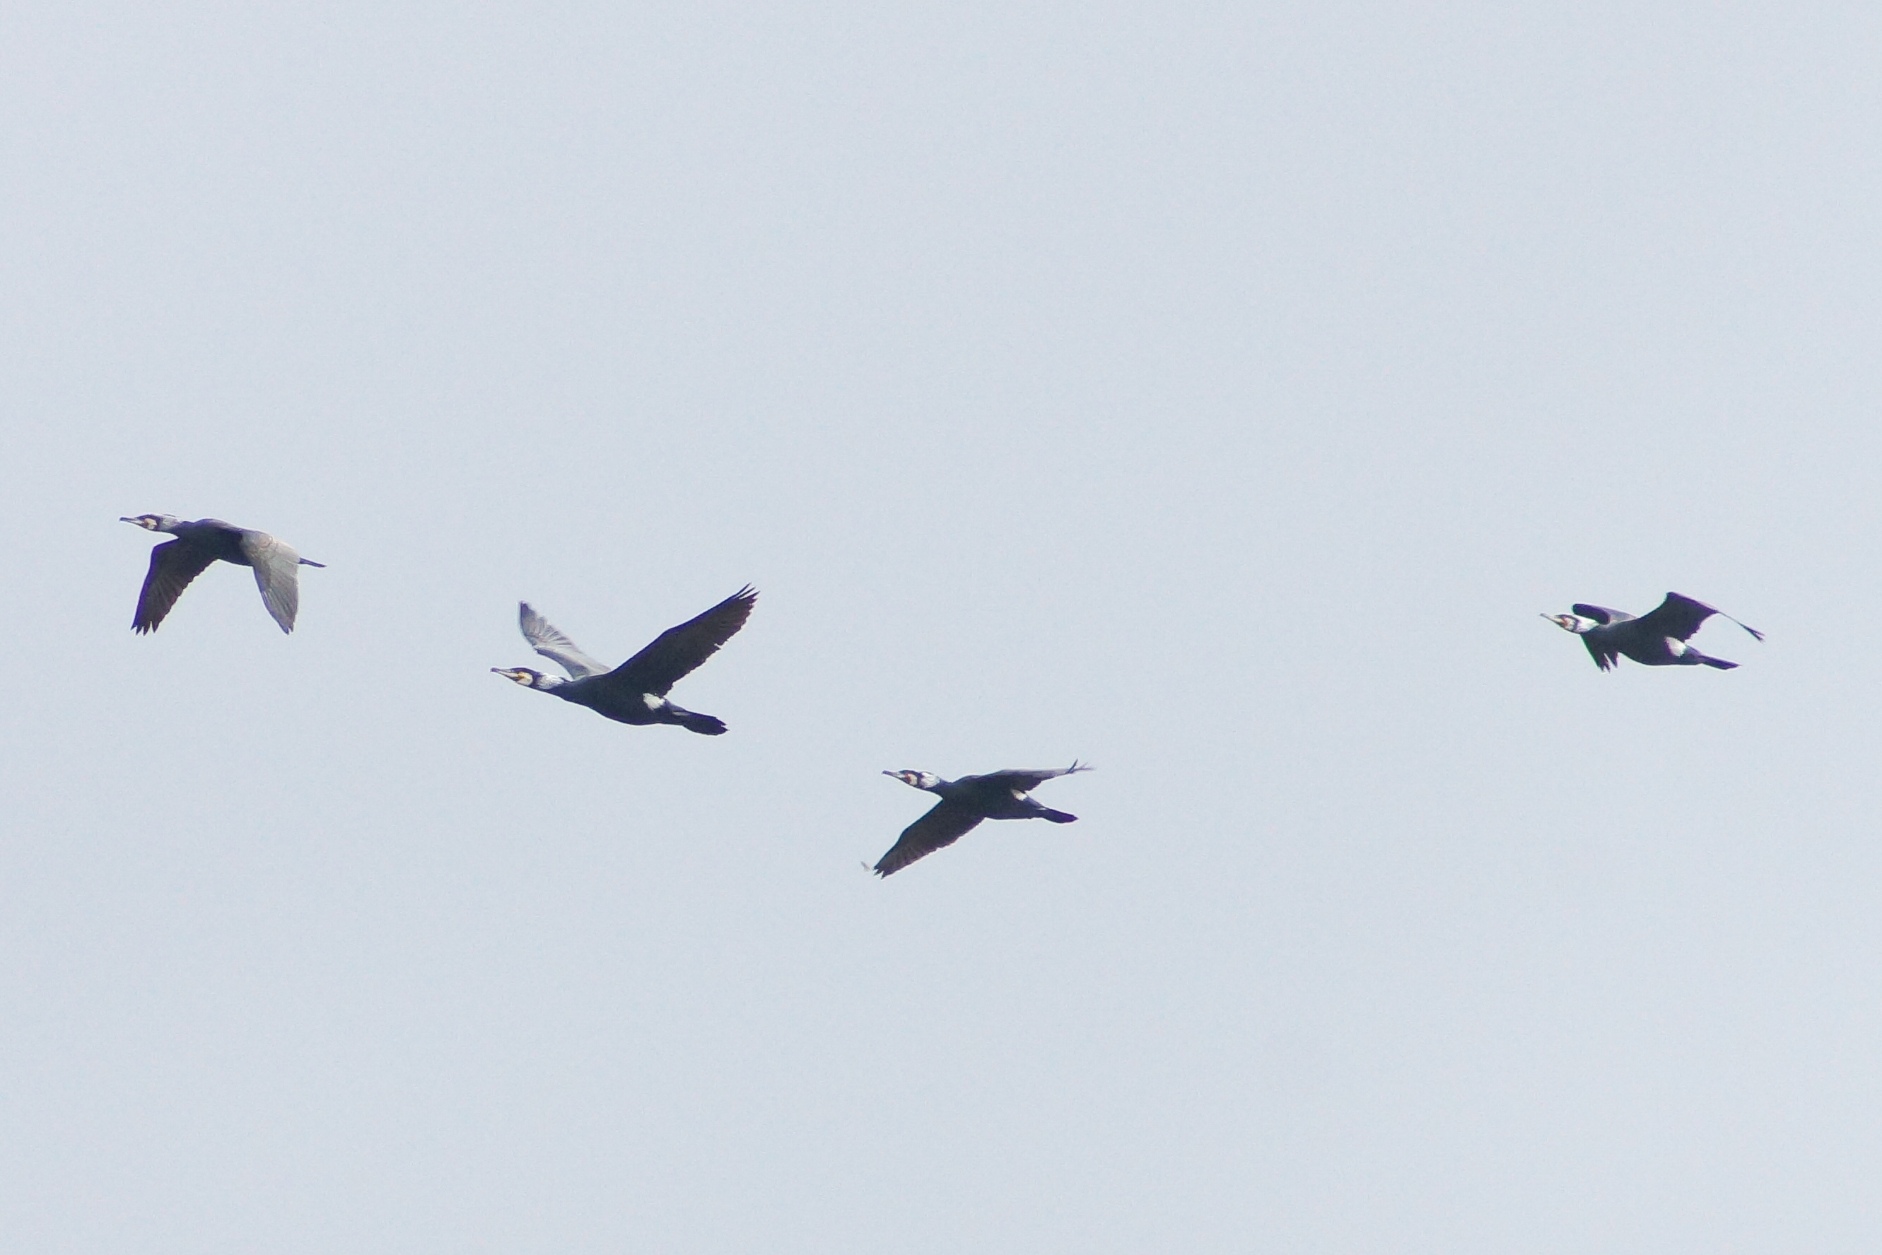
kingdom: Animalia
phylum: Chordata
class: Aves
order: Suliformes
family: Phalacrocoracidae
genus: Phalacrocorax
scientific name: Phalacrocorax carbo
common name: Skarv
